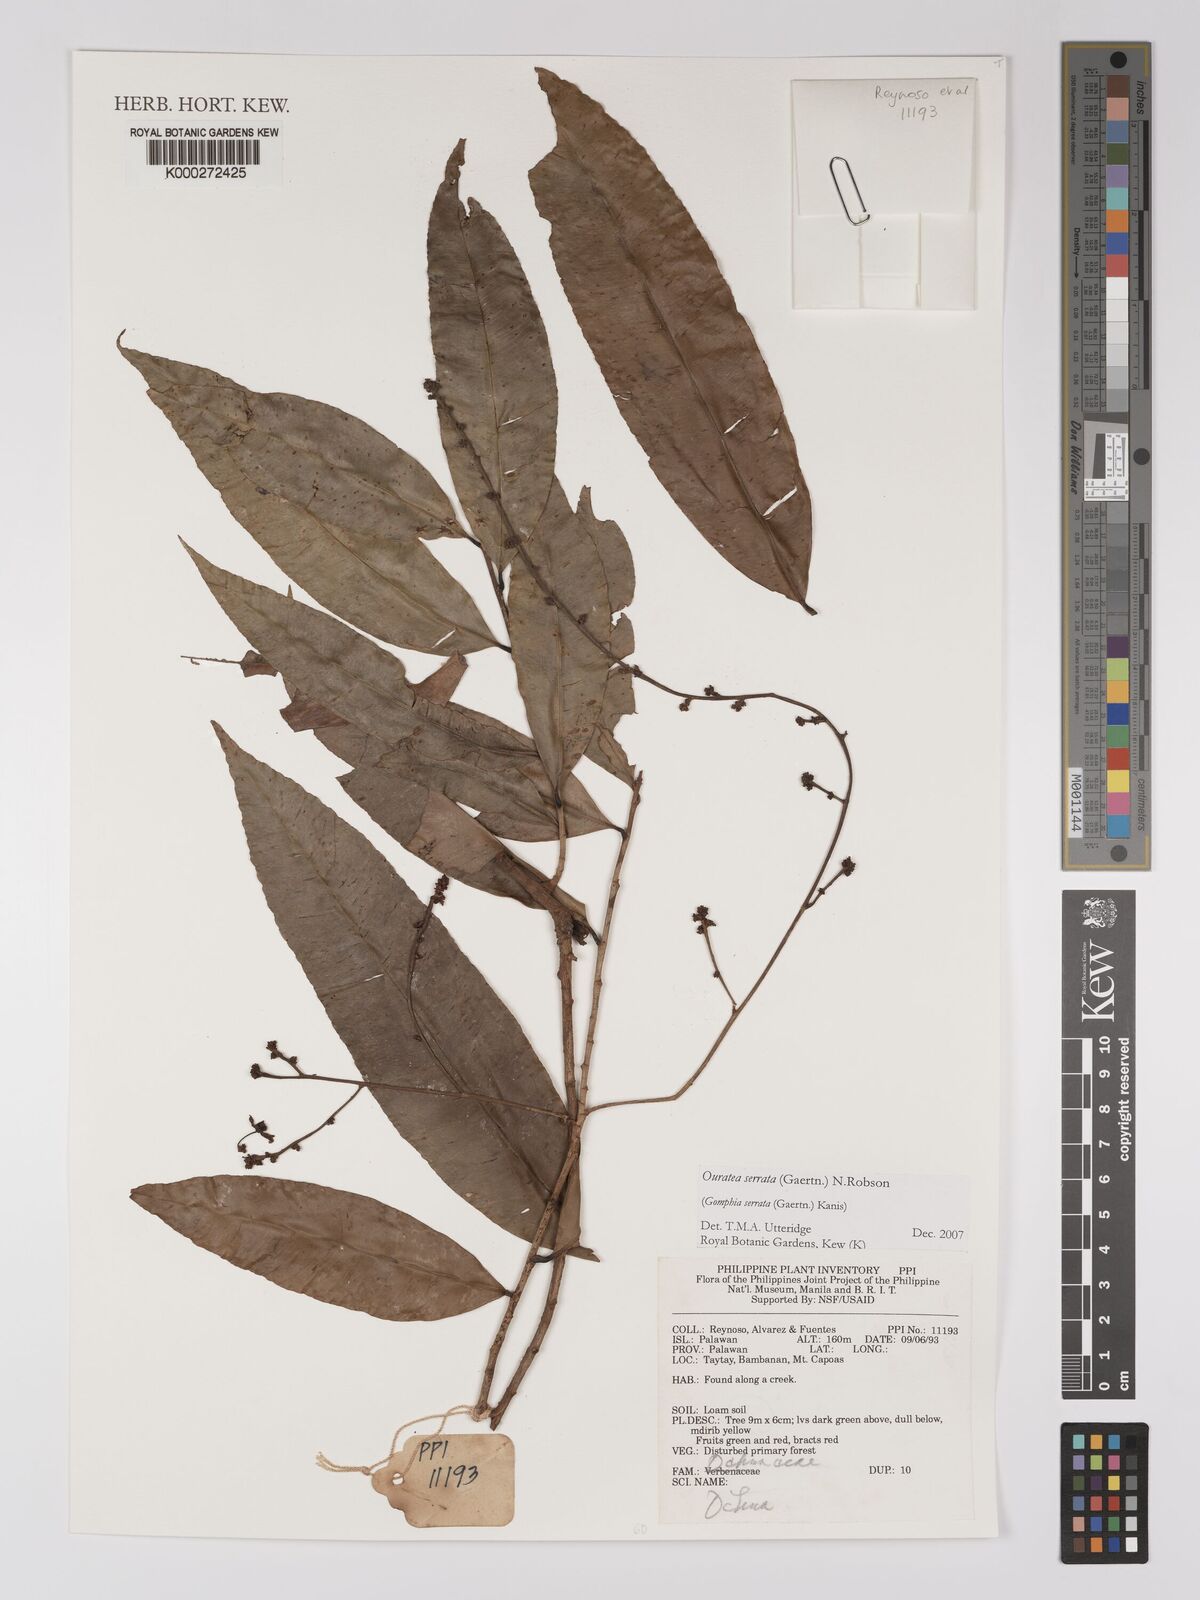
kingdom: Plantae
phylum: Tracheophyta
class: Magnoliopsida
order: Malpighiales
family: Ochnaceae
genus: Gomphia
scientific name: Gomphia serrata
